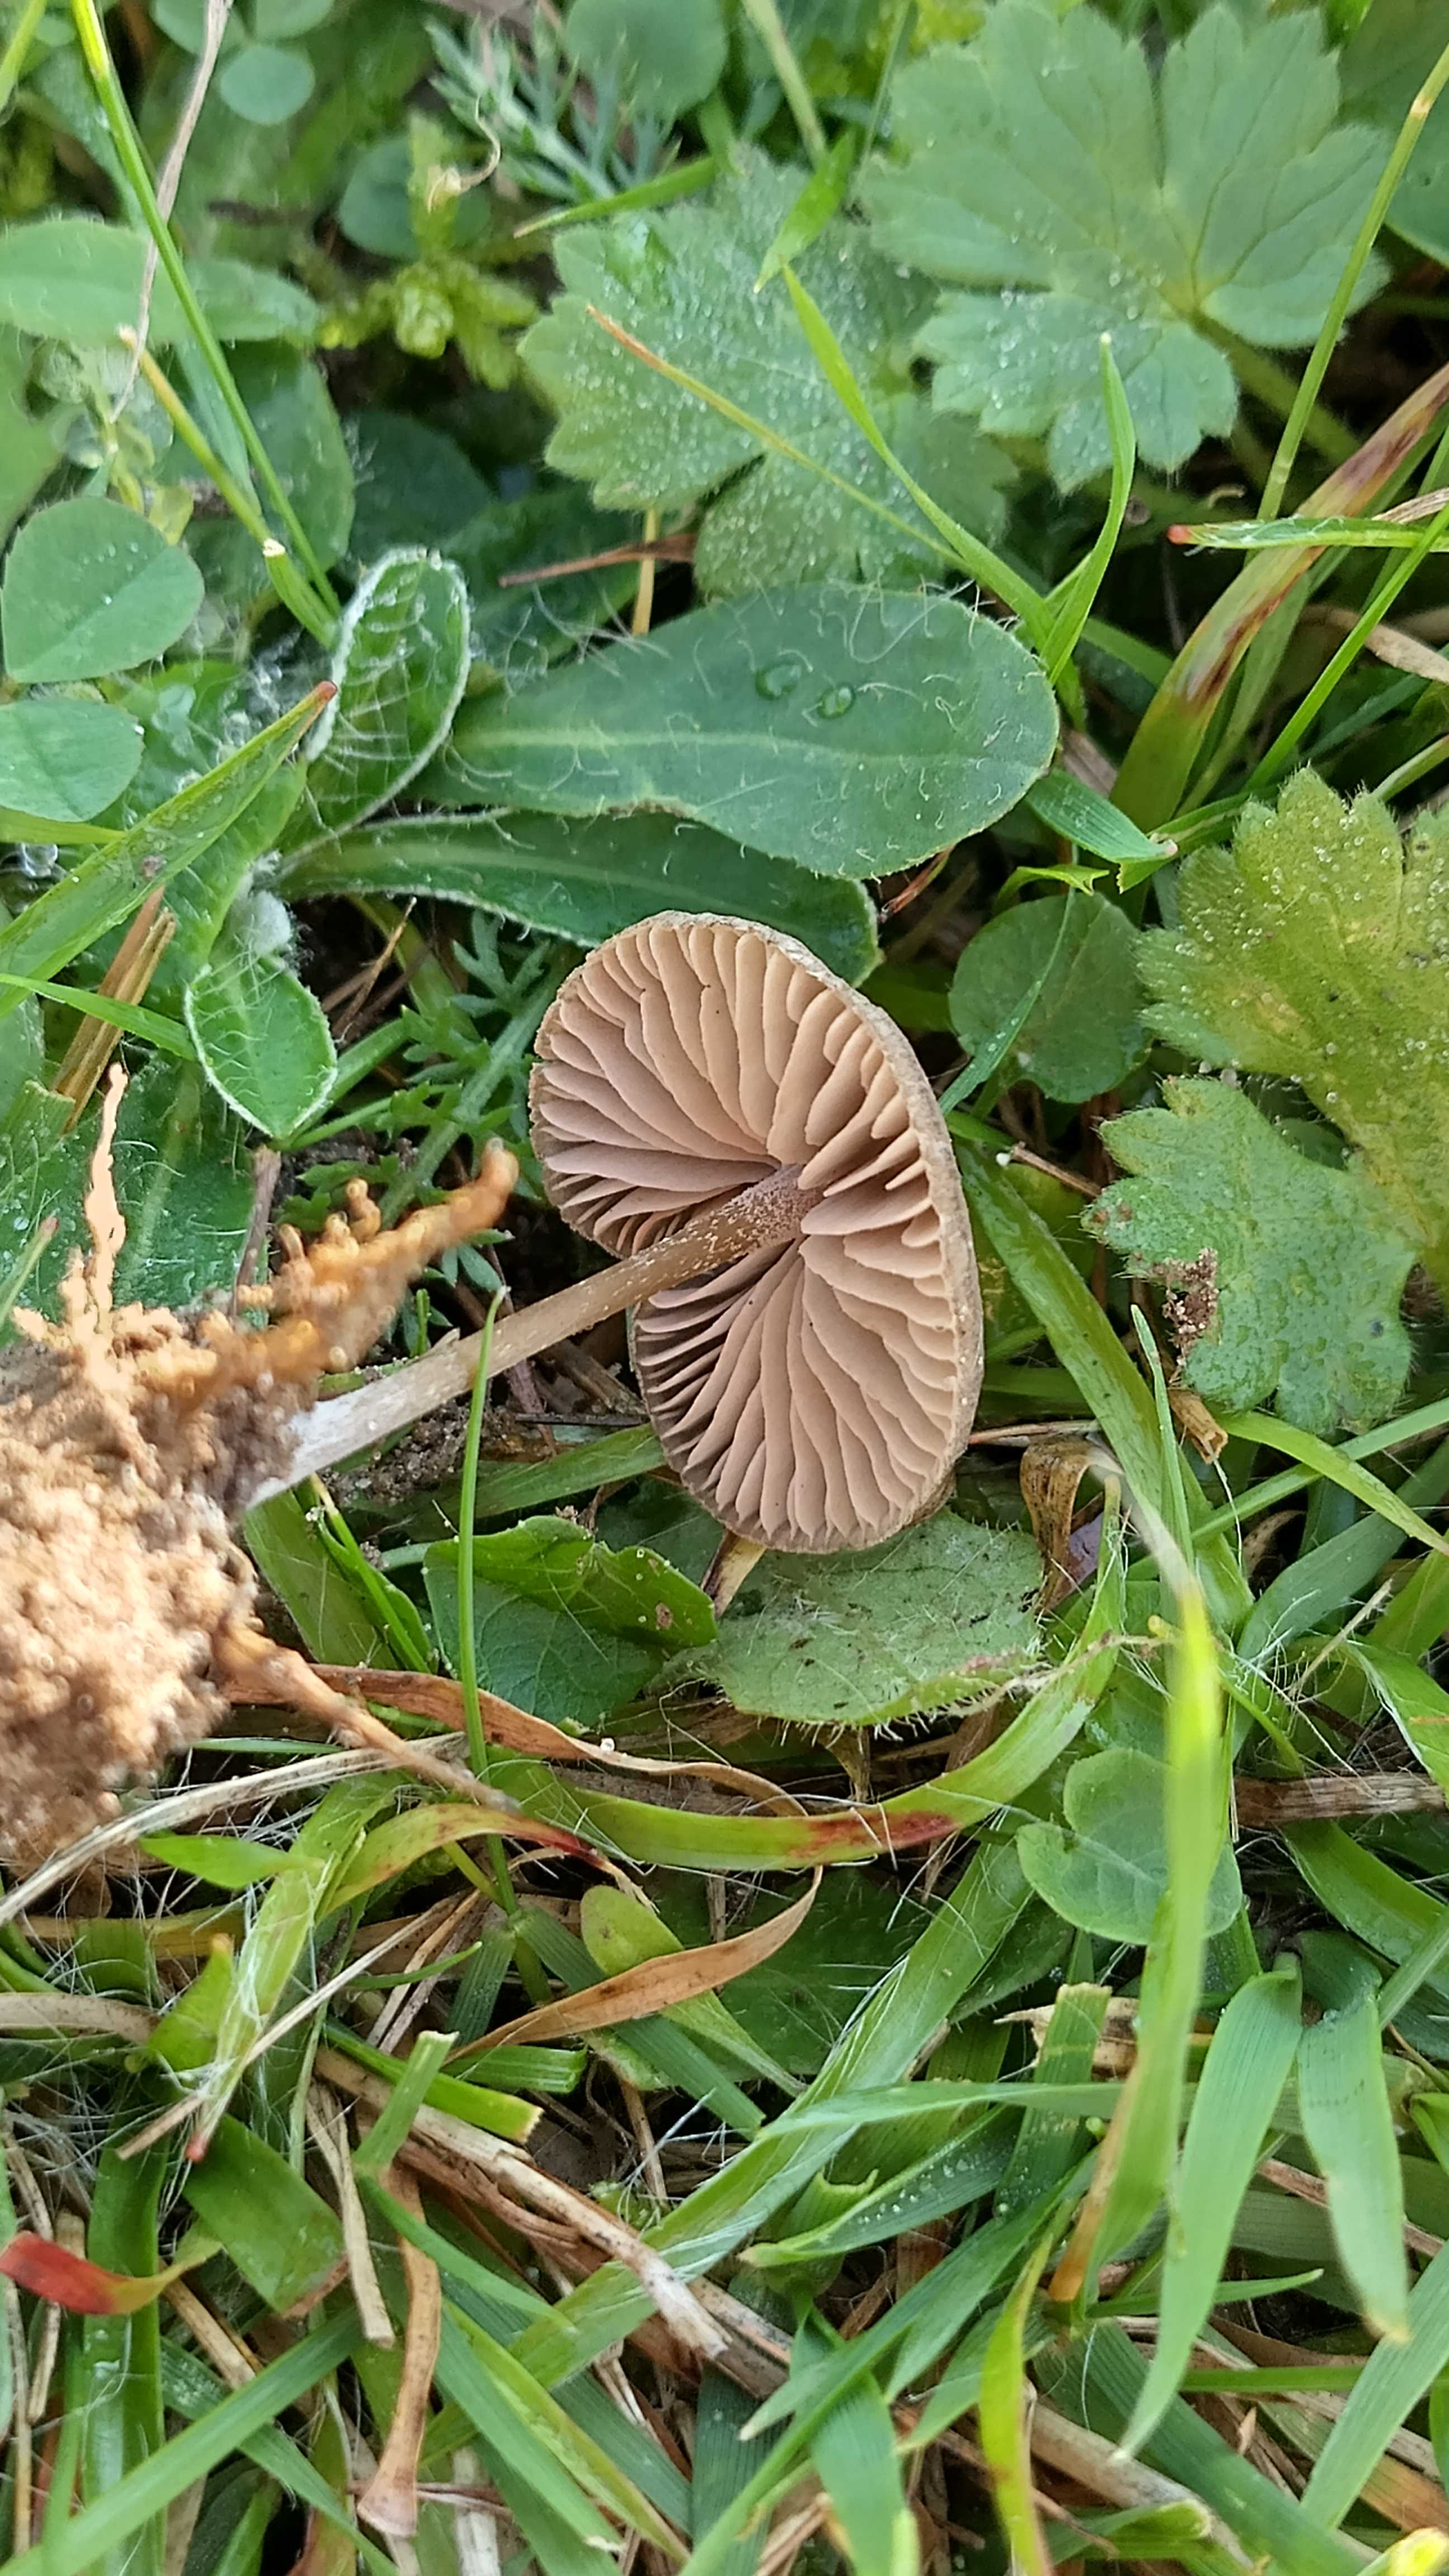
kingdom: Fungi
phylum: Basidiomycota
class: Agaricomycetes
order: Agaricales
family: Entolomataceae
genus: Entoloma
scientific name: Entoloma
